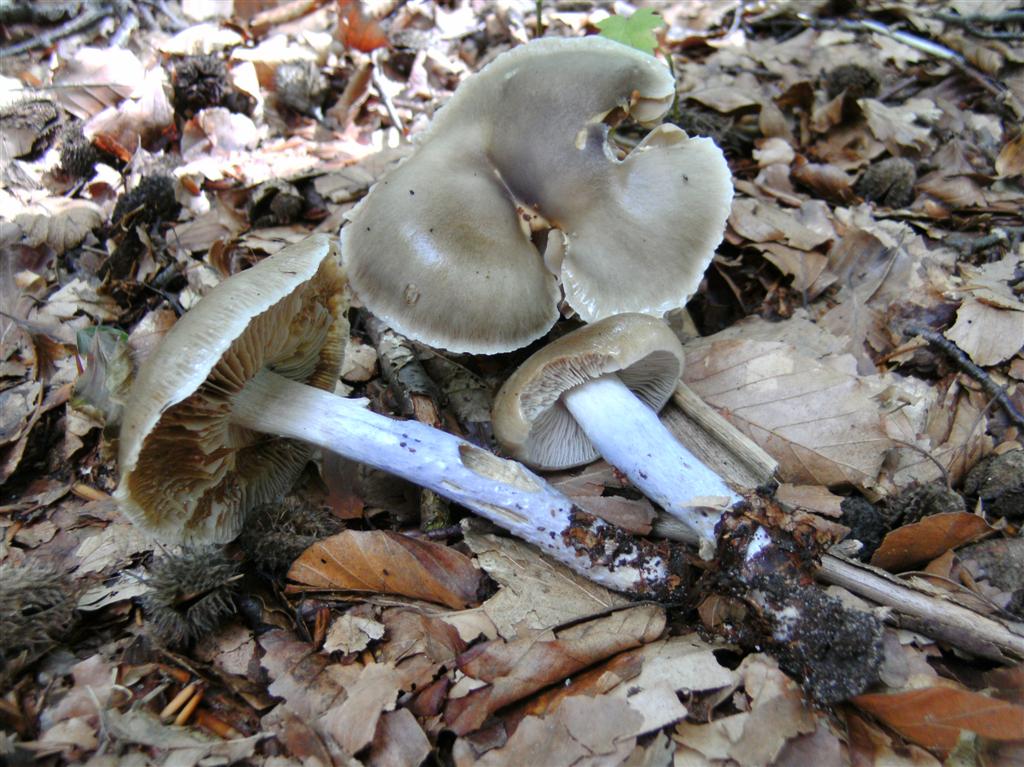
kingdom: Fungi
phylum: Basidiomycota
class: Agaricomycetes
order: Agaricales
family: Cortinariaceae
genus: Cortinarius
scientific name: Cortinarius elatior
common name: høj slørhat
